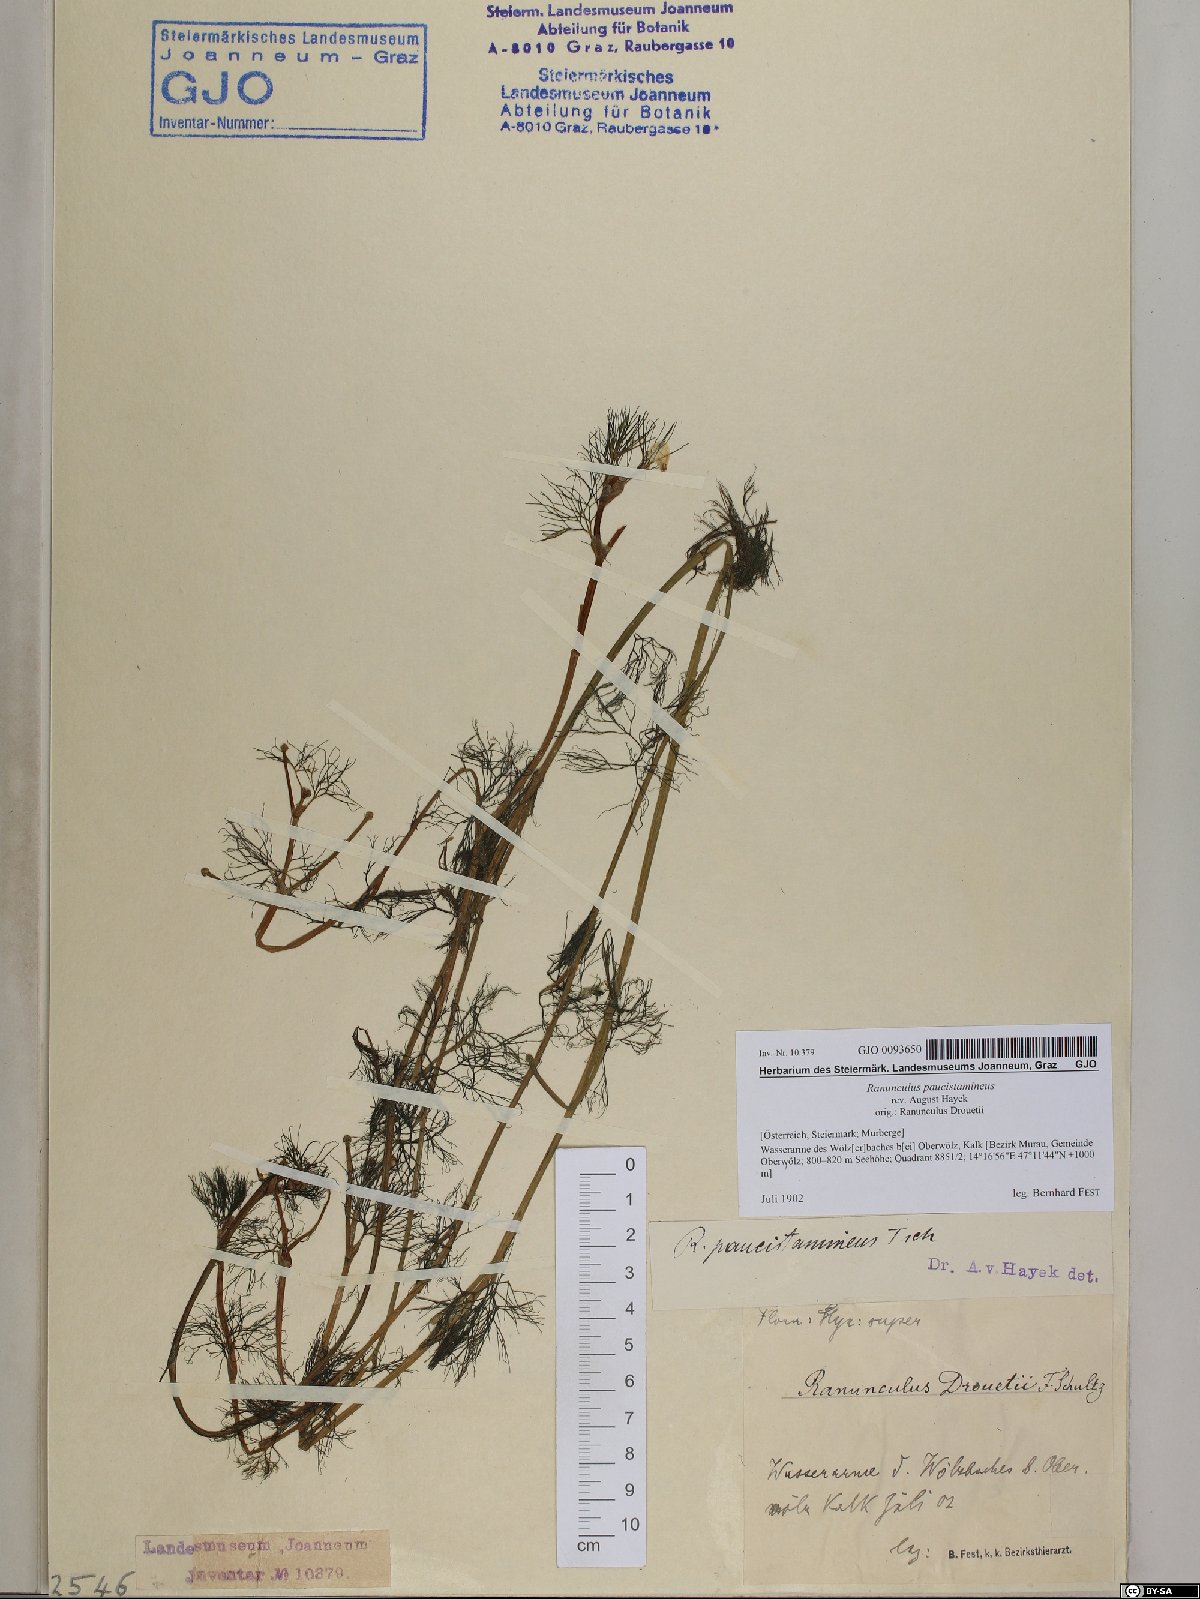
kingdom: Plantae
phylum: Tracheophyta
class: Magnoliopsida
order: Ranunculales
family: Ranunculaceae
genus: Ranunculus
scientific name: Ranunculus
